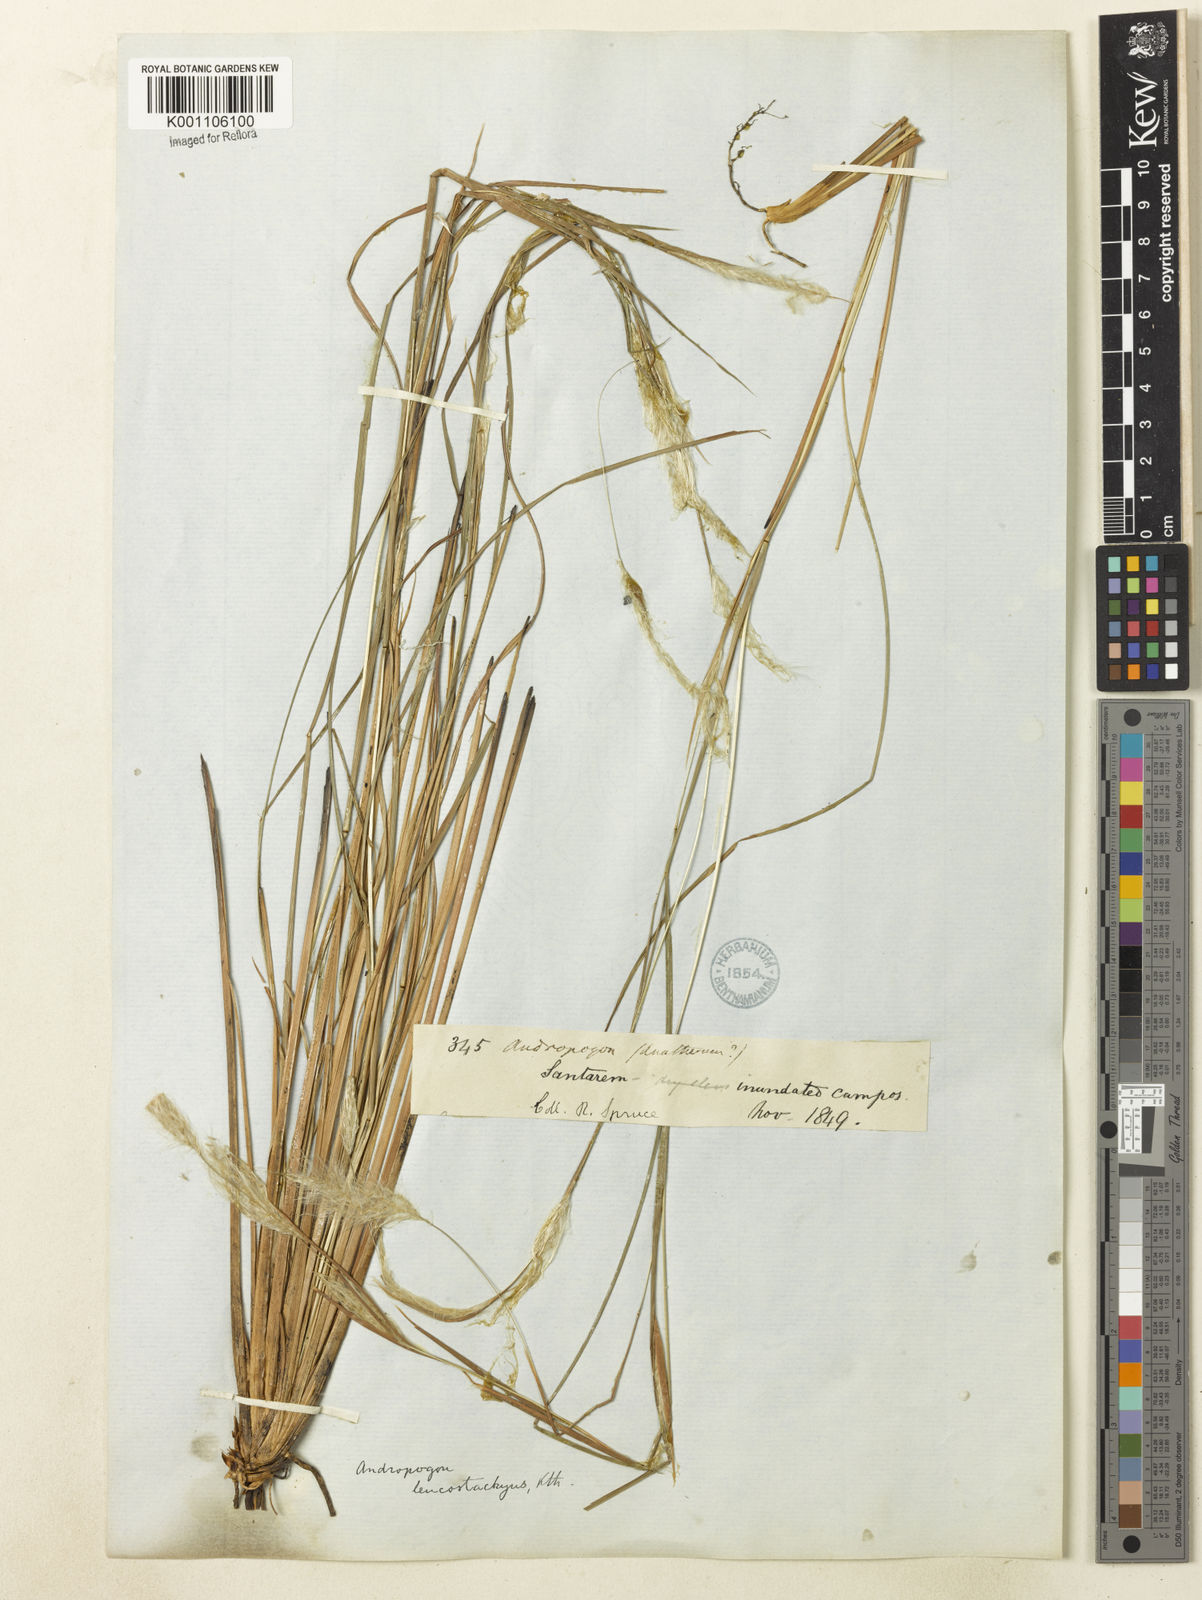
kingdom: Plantae
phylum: Tracheophyta
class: Liliopsida
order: Poales
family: Poaceae
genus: Andropogon
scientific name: Andropogon leucostachyus
